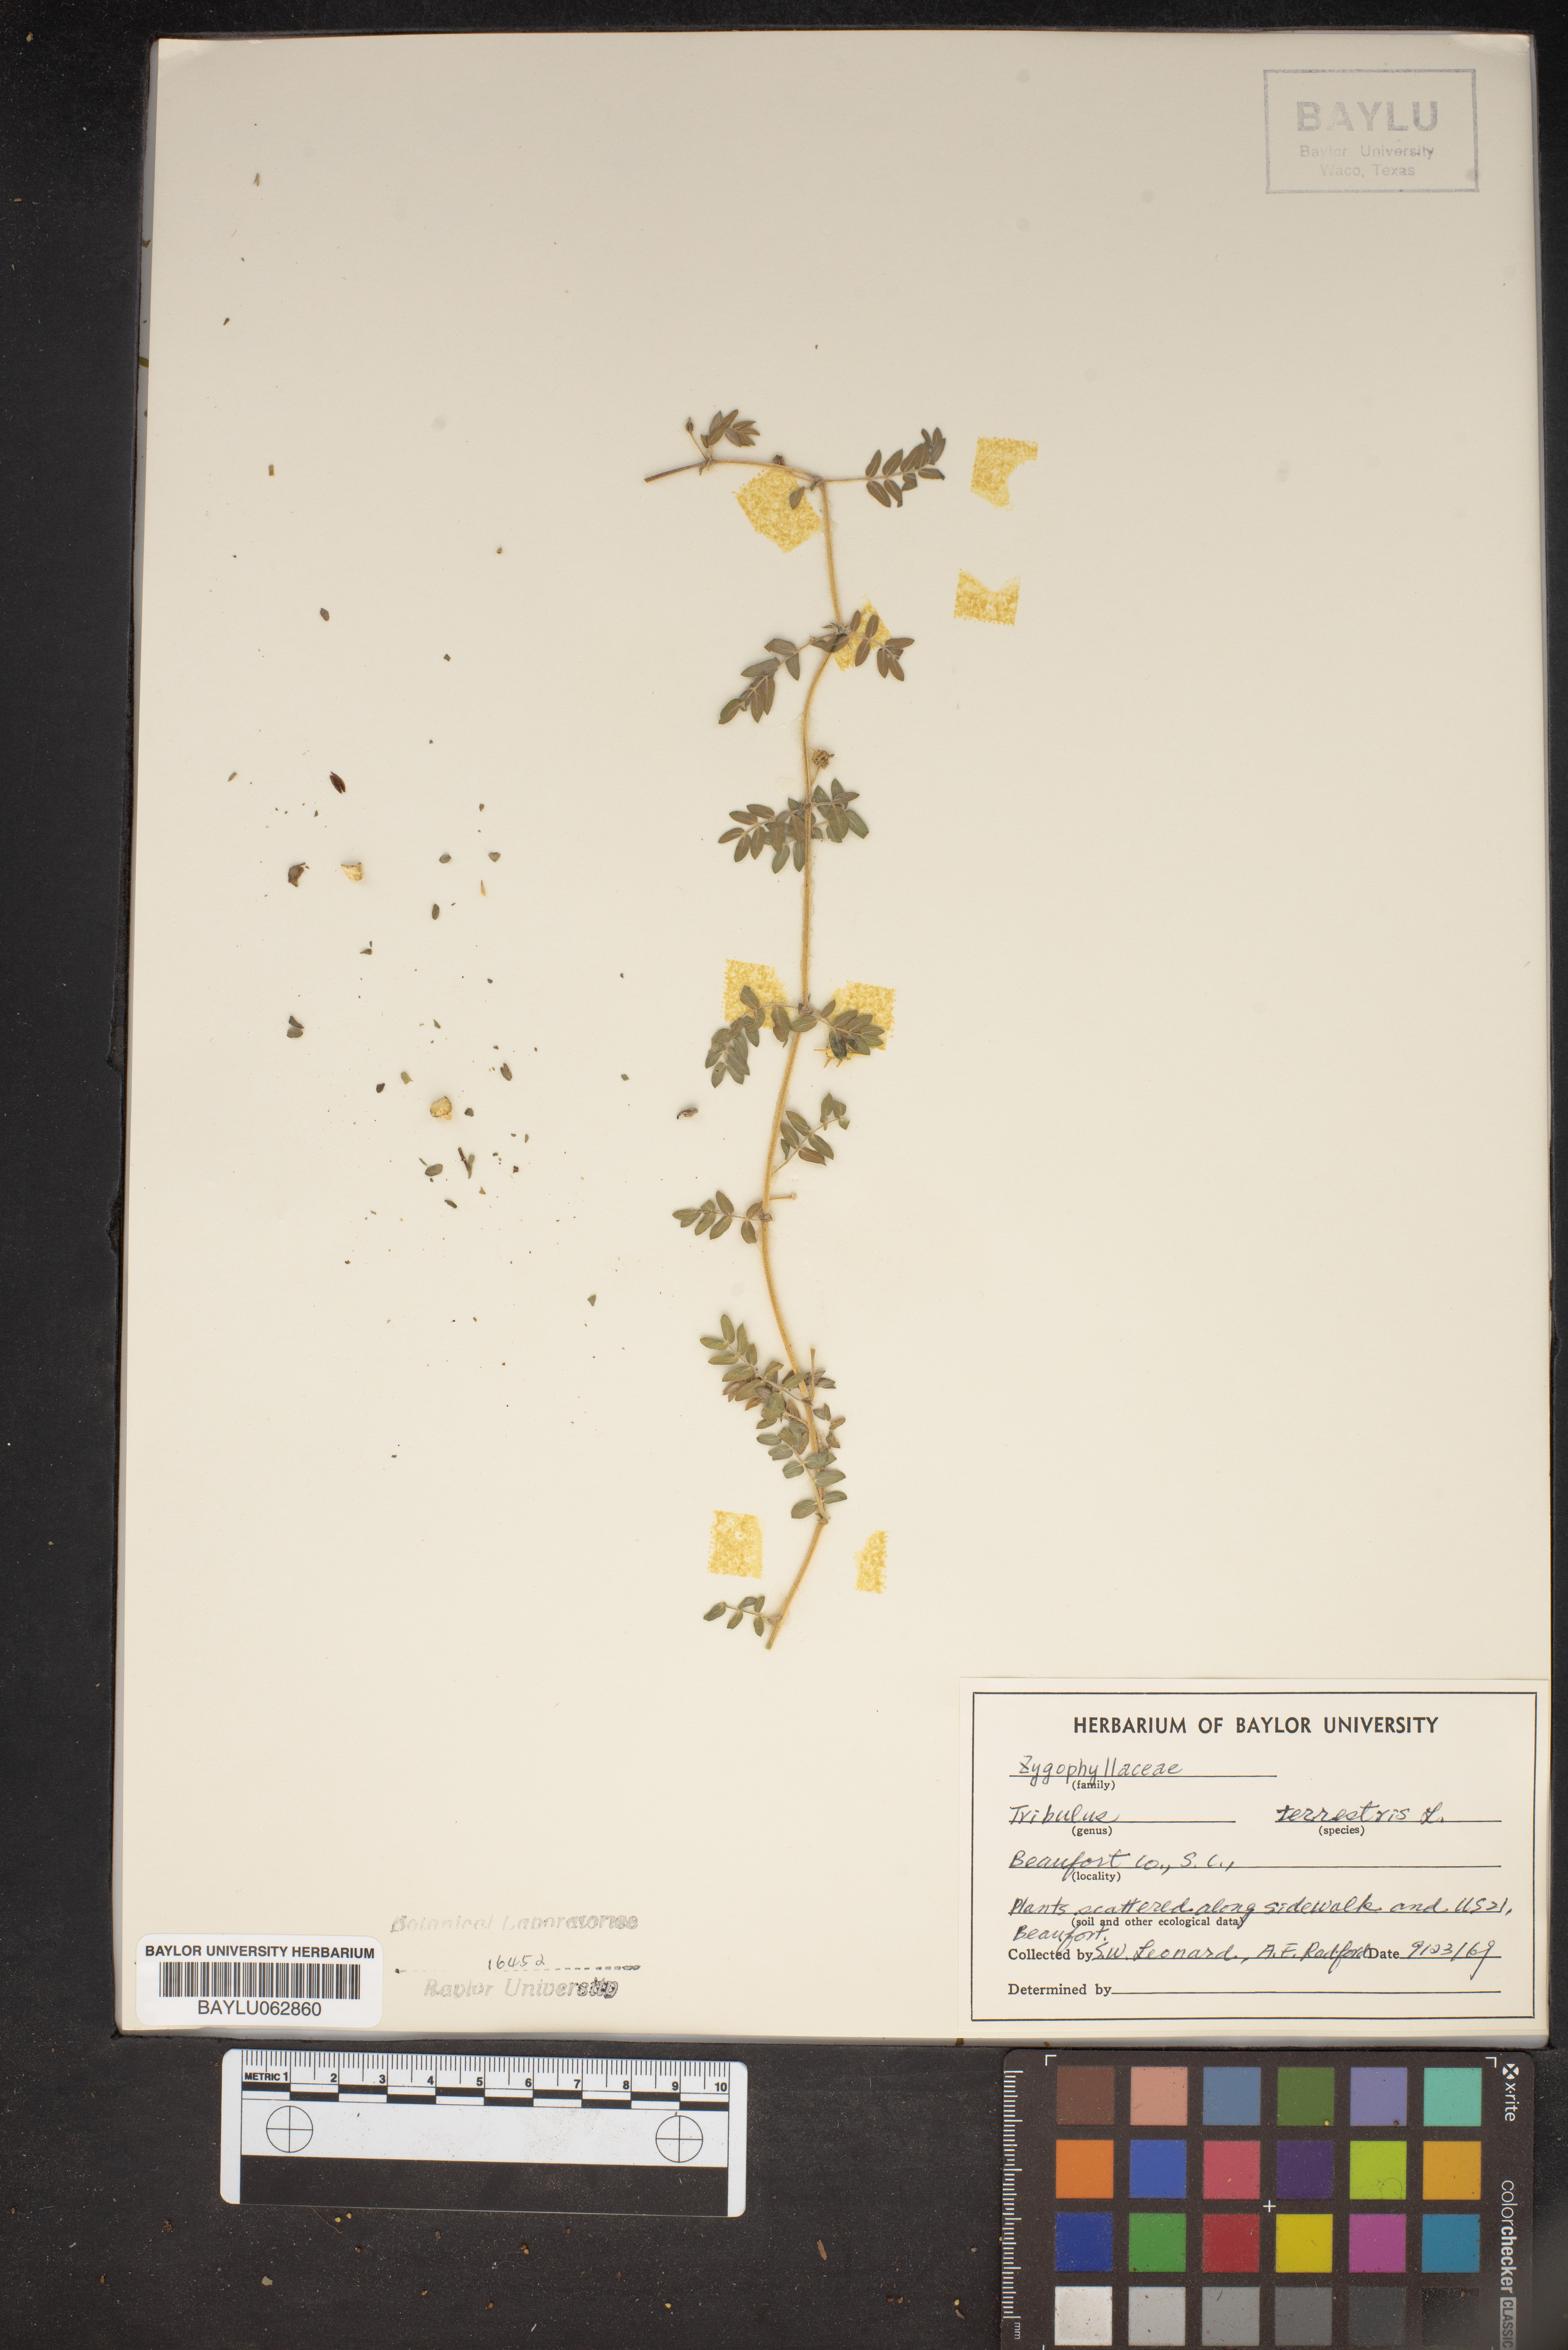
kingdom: Plantae
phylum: Tracheophyta
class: Magnoliopsida
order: Zygophyllales
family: Zygophyllaceae
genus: Tribulus
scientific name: Tribulus terrestris
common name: Puncturevine
